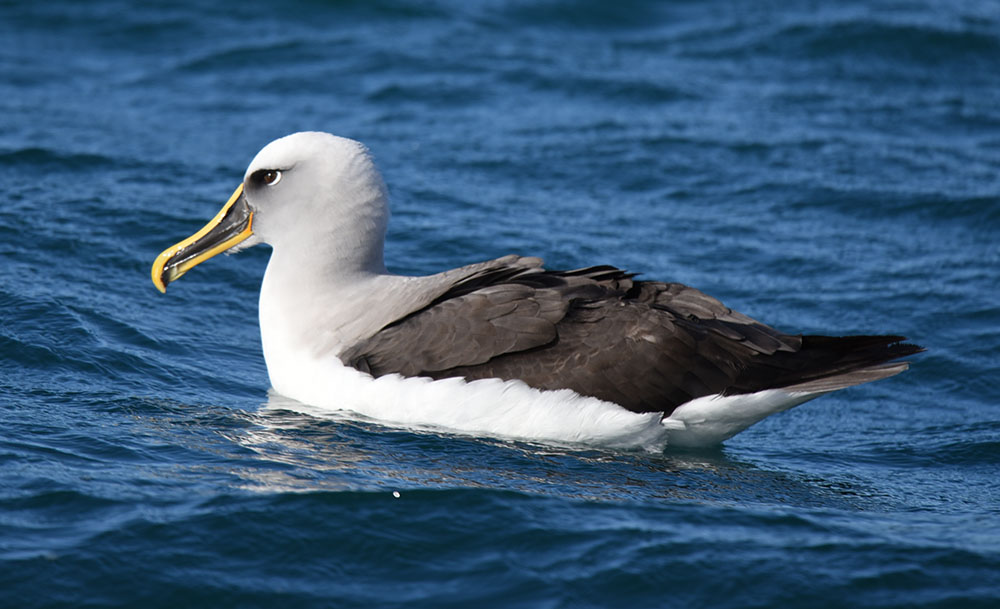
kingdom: Animalia
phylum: Chordata
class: Aves
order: Procellariiformes
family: Diomedeidae
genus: Thalassarche
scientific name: Thalassarche bulleri
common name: Buller's albatross
